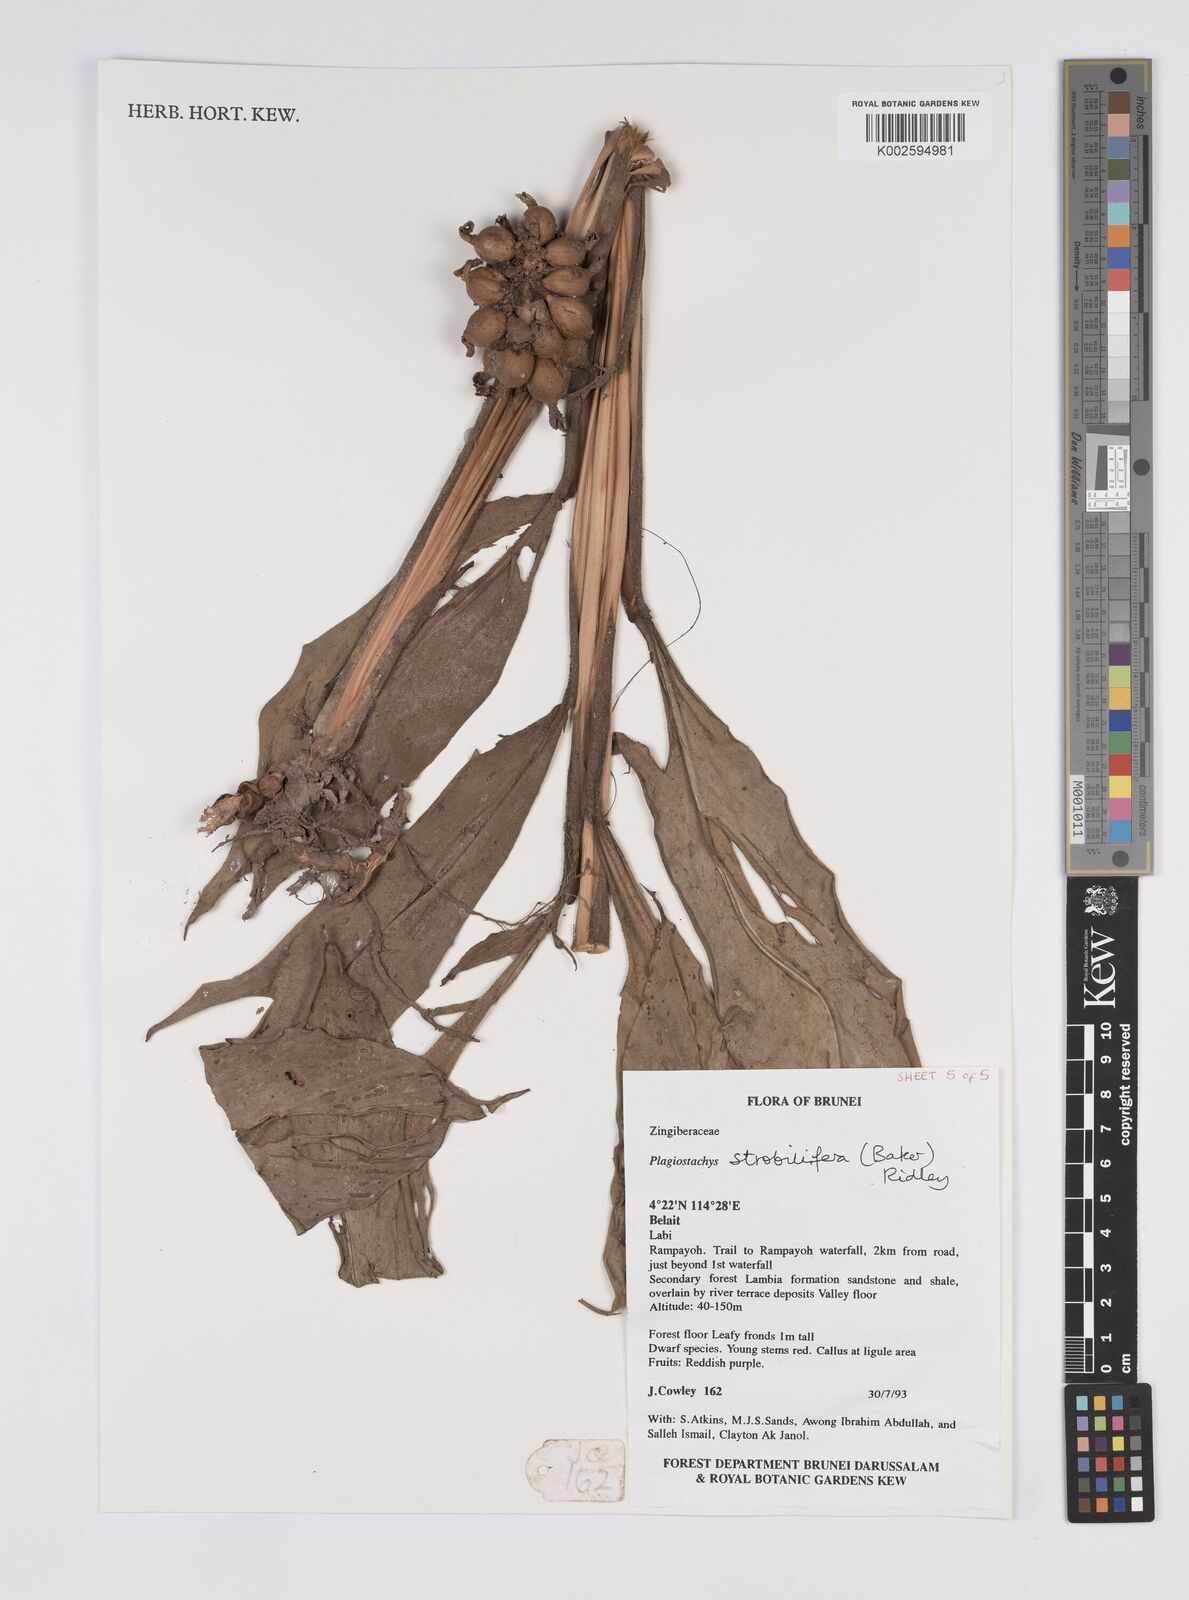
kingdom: Plantae
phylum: Tracheophyta
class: Liliopsida
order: Zingiberales
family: Zingiberaceae
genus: Plagiostachys
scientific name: Plagiostachys strobilifera
